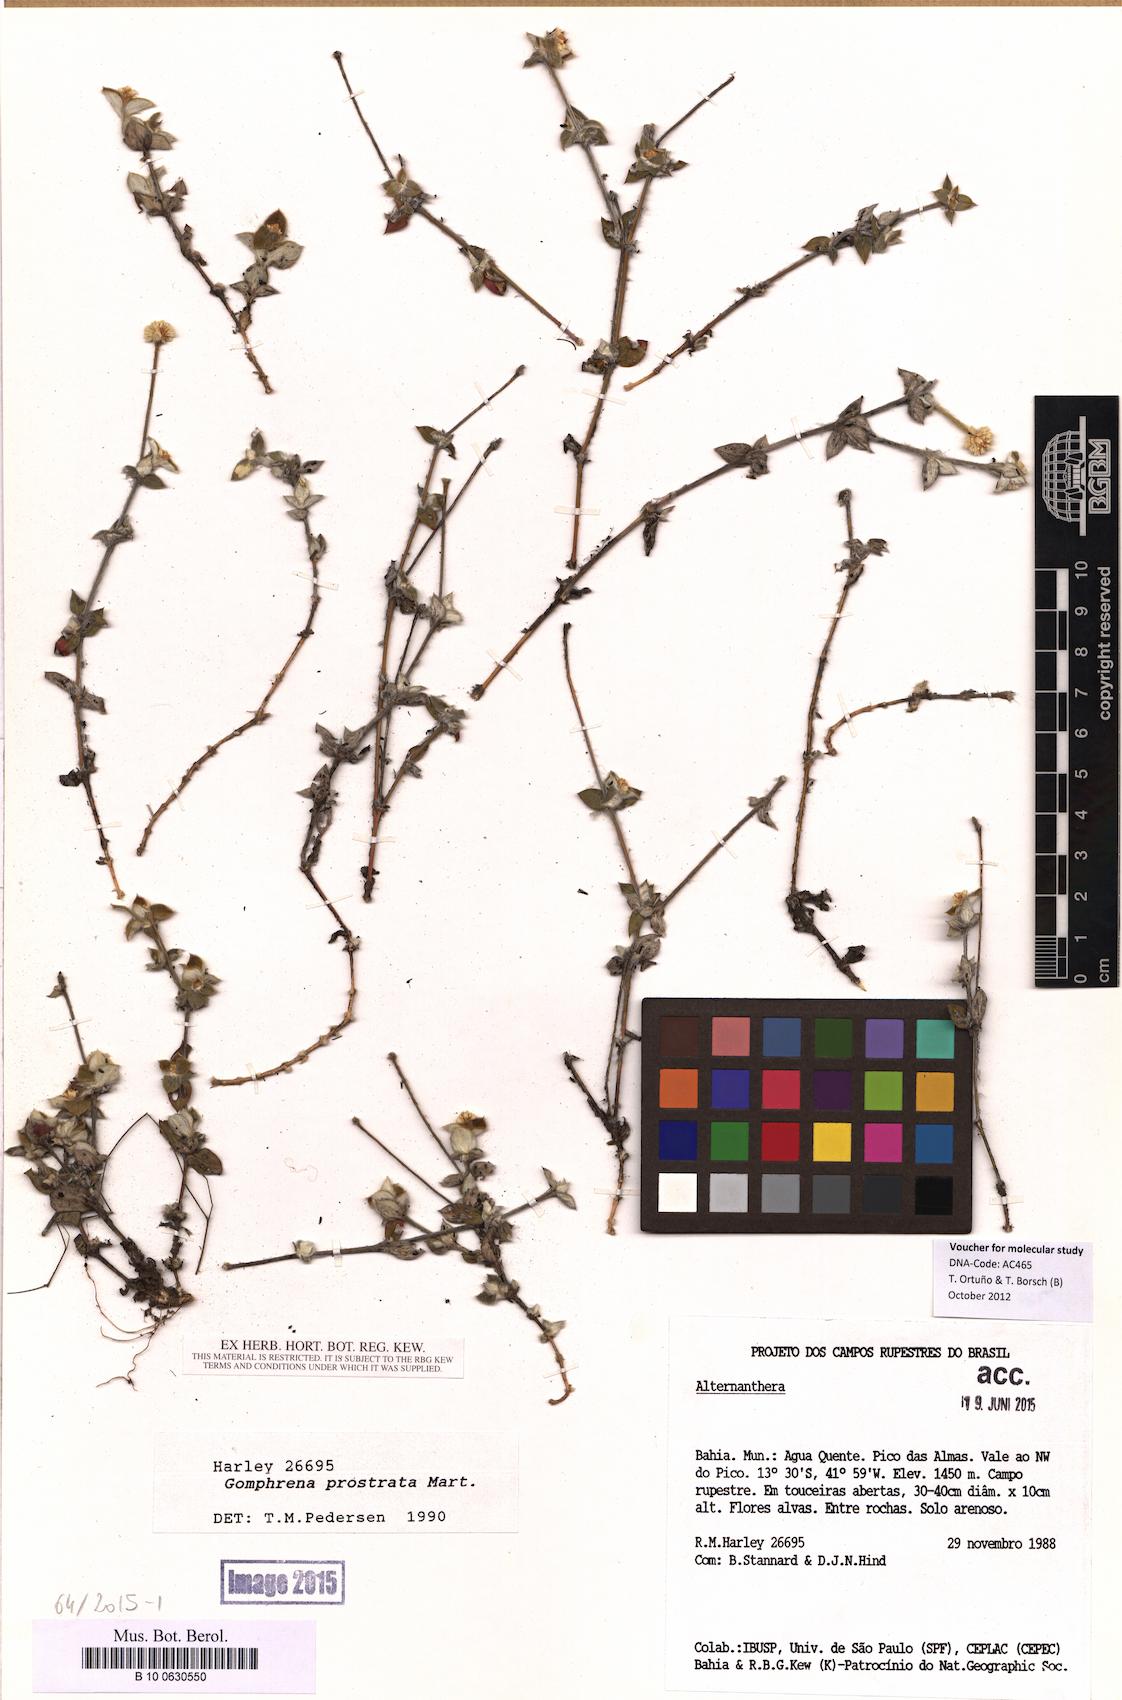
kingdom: Plantae
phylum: Tracheophyta
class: Magnoliopsida
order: Caryophyllales
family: Amaranthaceae
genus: Gomphrena
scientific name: Gomphrena prostrata
